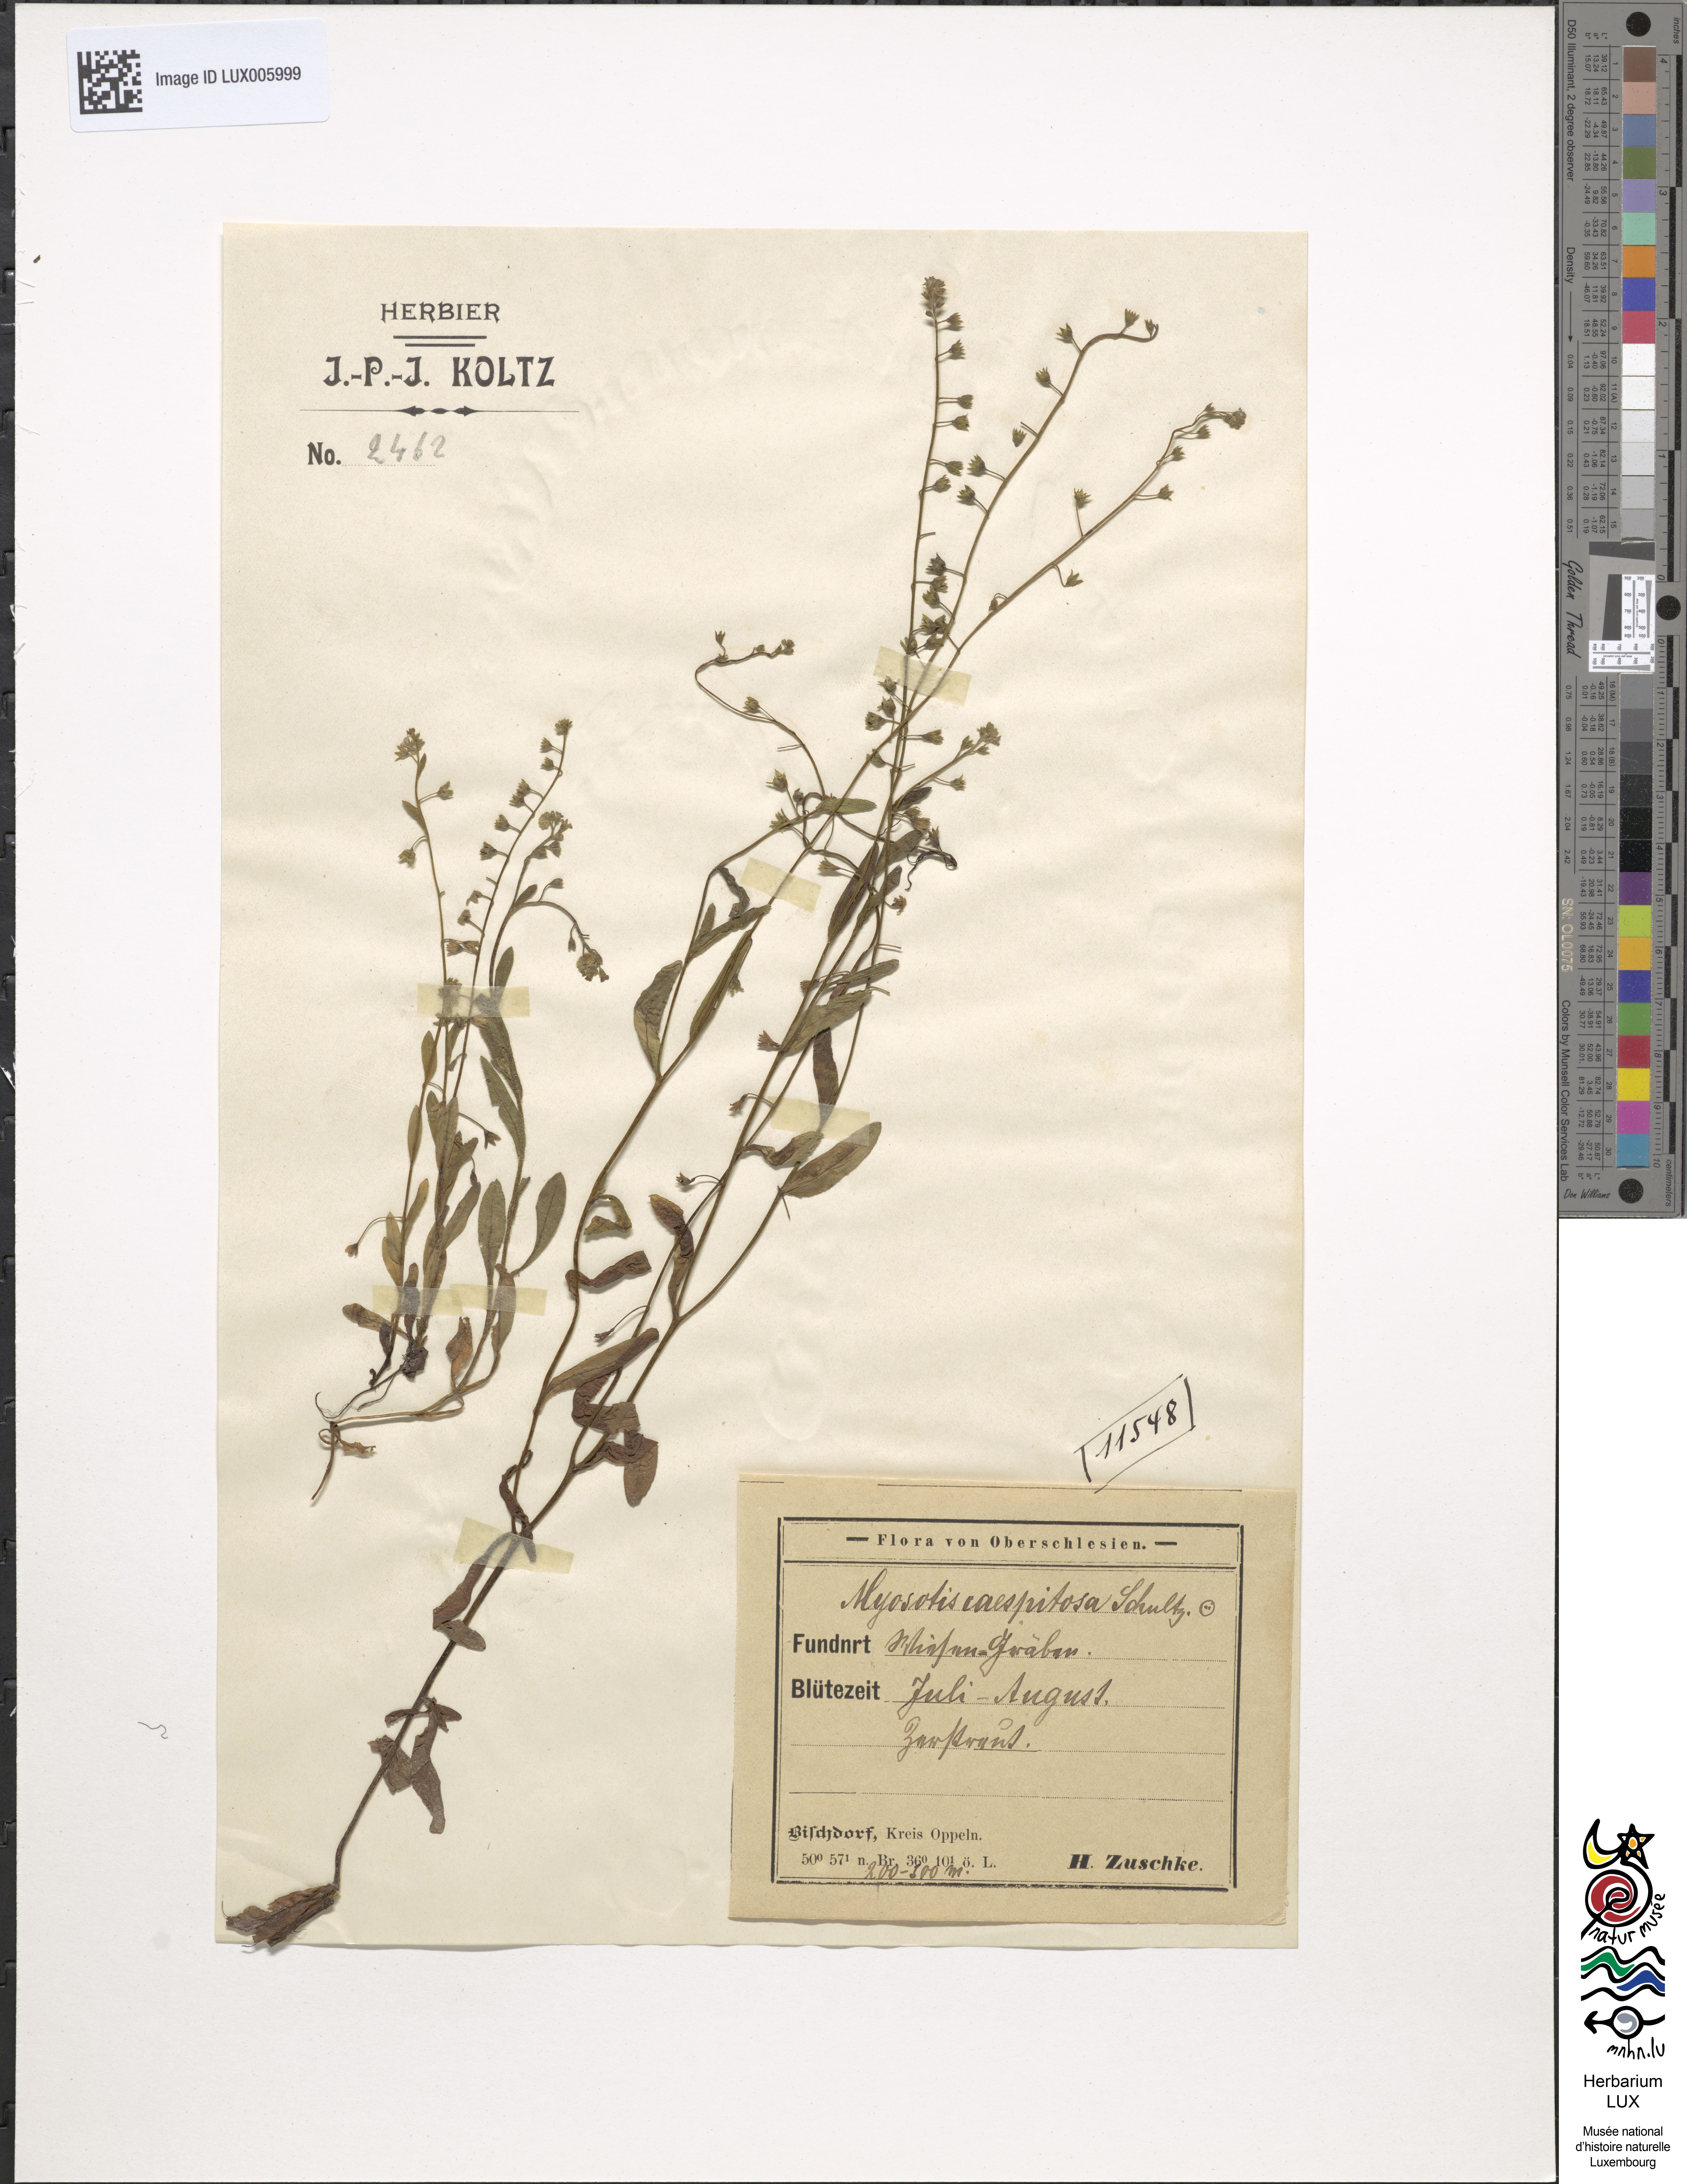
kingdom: Plantae
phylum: Tracheophyta
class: Magnoliopsida
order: Boraginales
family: Boraginaceae
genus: Myosotis
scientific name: Myosotis rehsteineri
